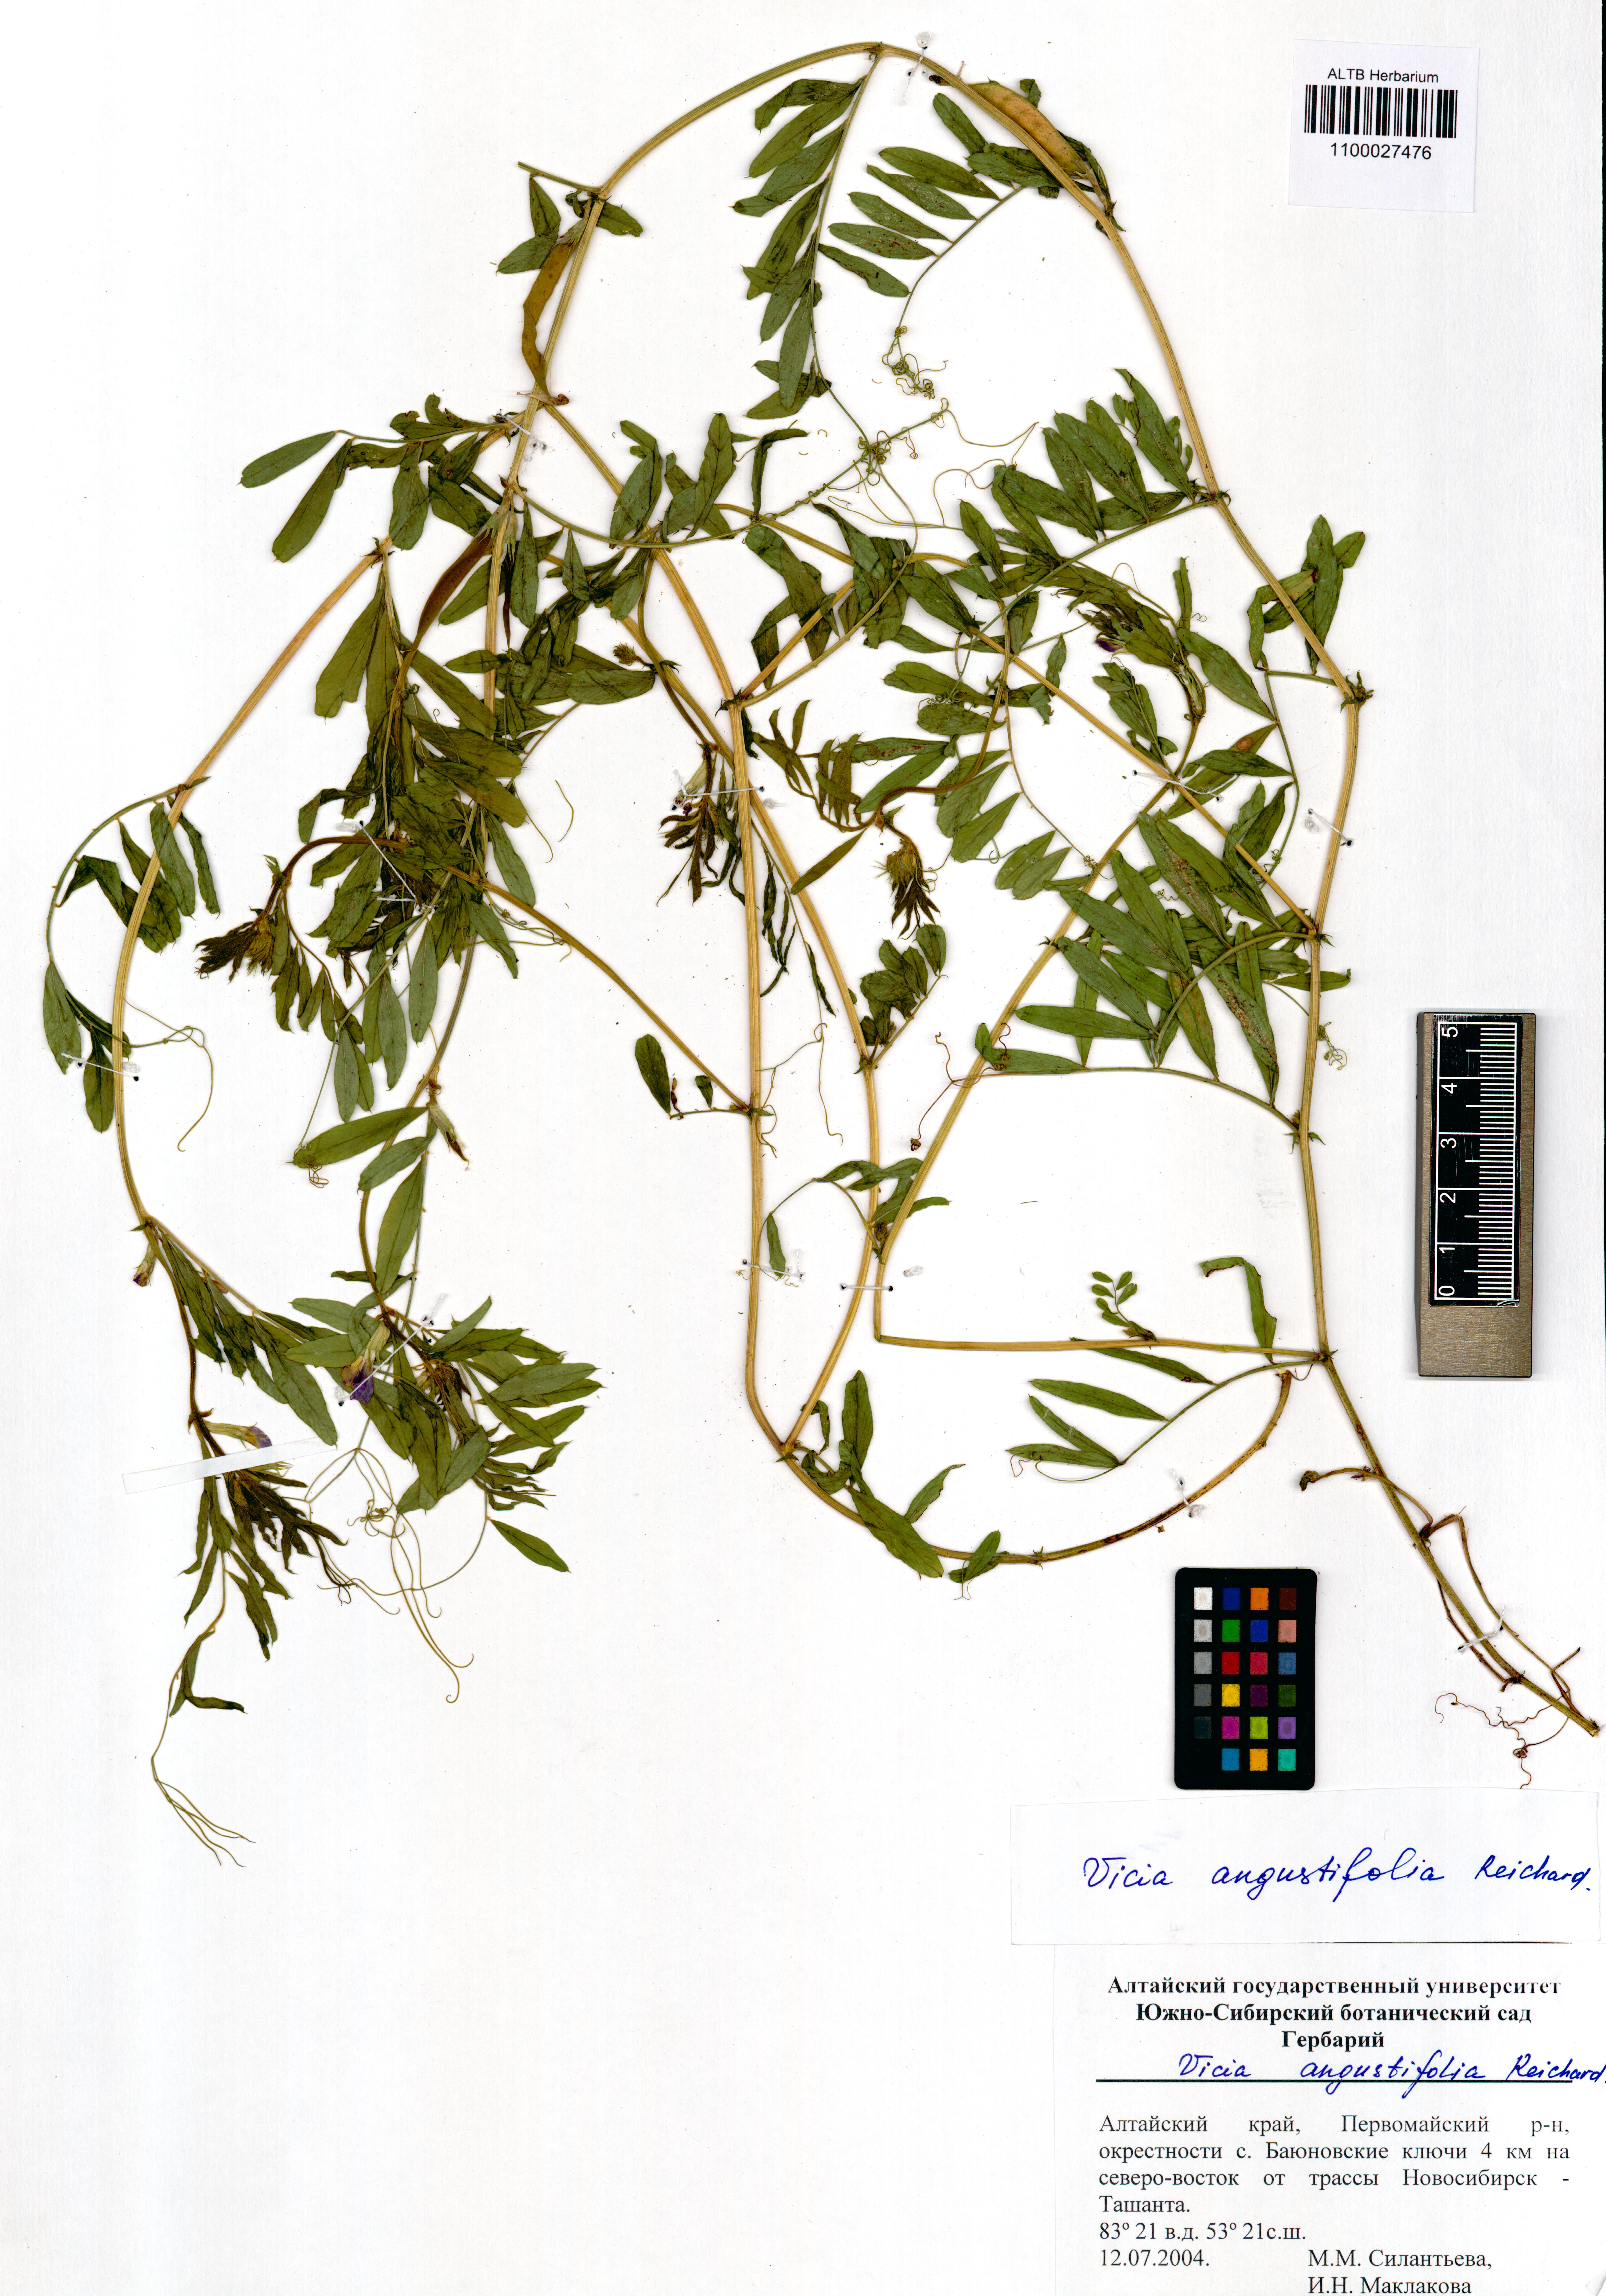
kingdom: Plantae
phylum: Tracheophyta
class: Magnoliopsida
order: Fabales
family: Fabaceae
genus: Vicia
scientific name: Vicia sativa
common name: Garden vetch
